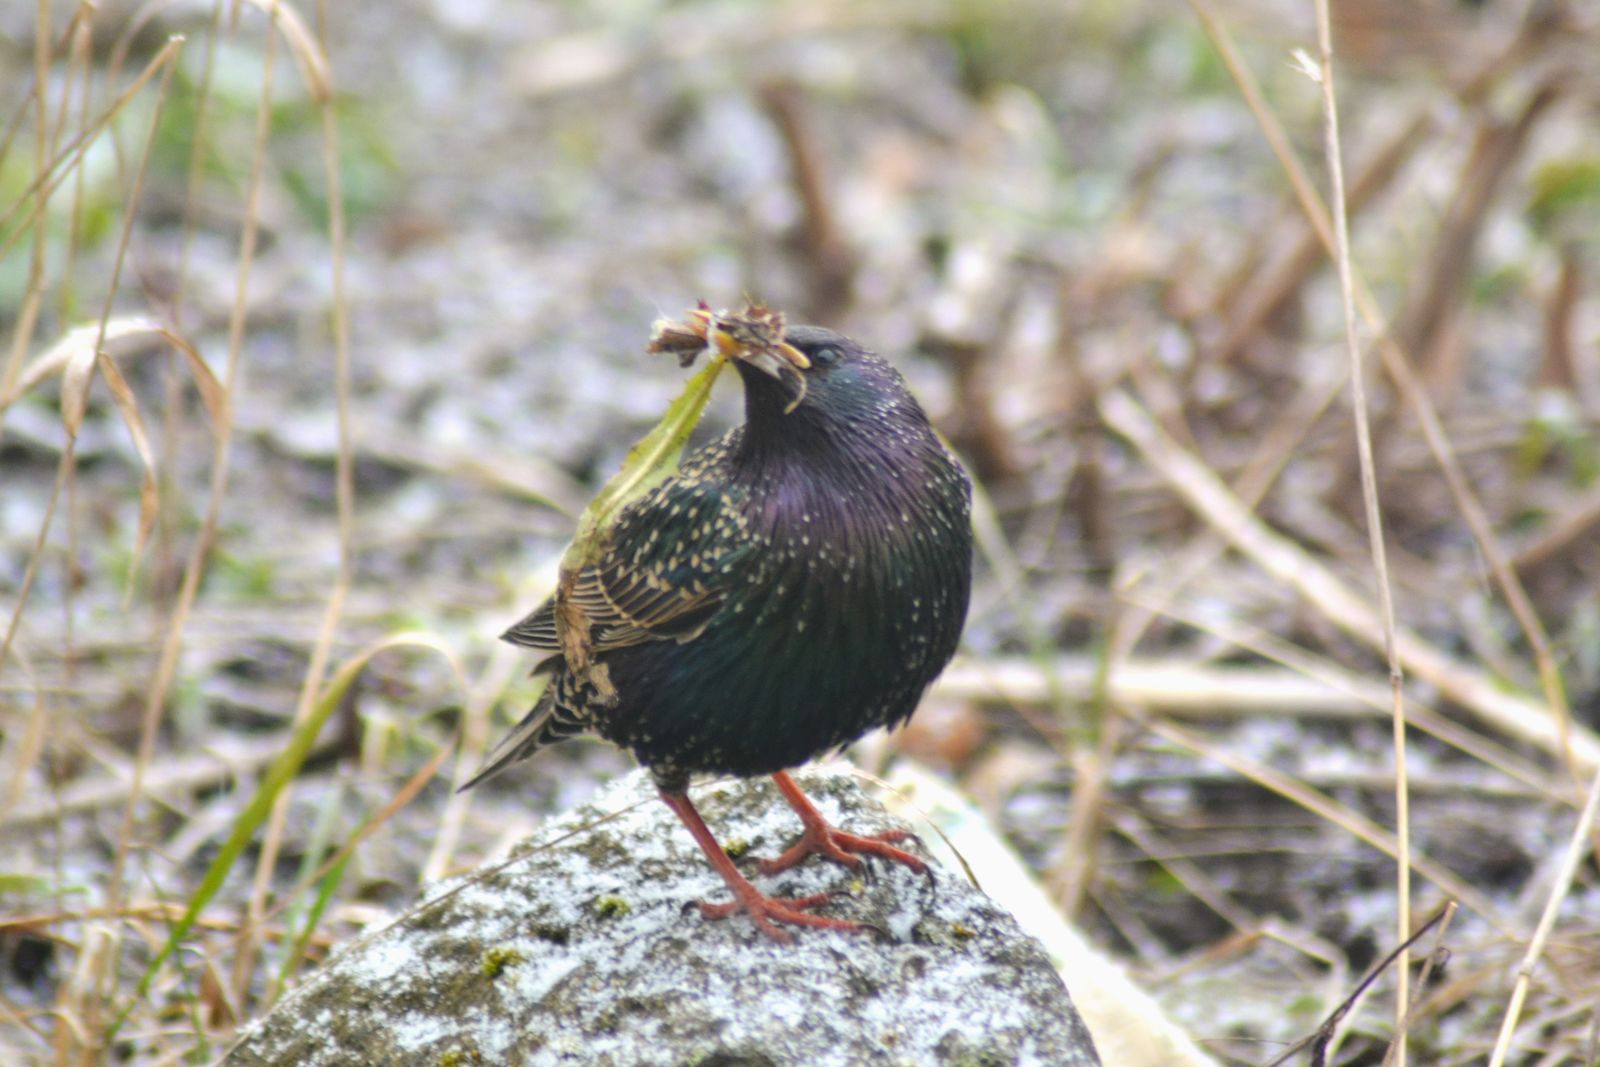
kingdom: Animalia
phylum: Chordata
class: Aves
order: Passeriformes
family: Sturnidae
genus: Sturnus
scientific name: Sturnus vulgaris
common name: Common starling
